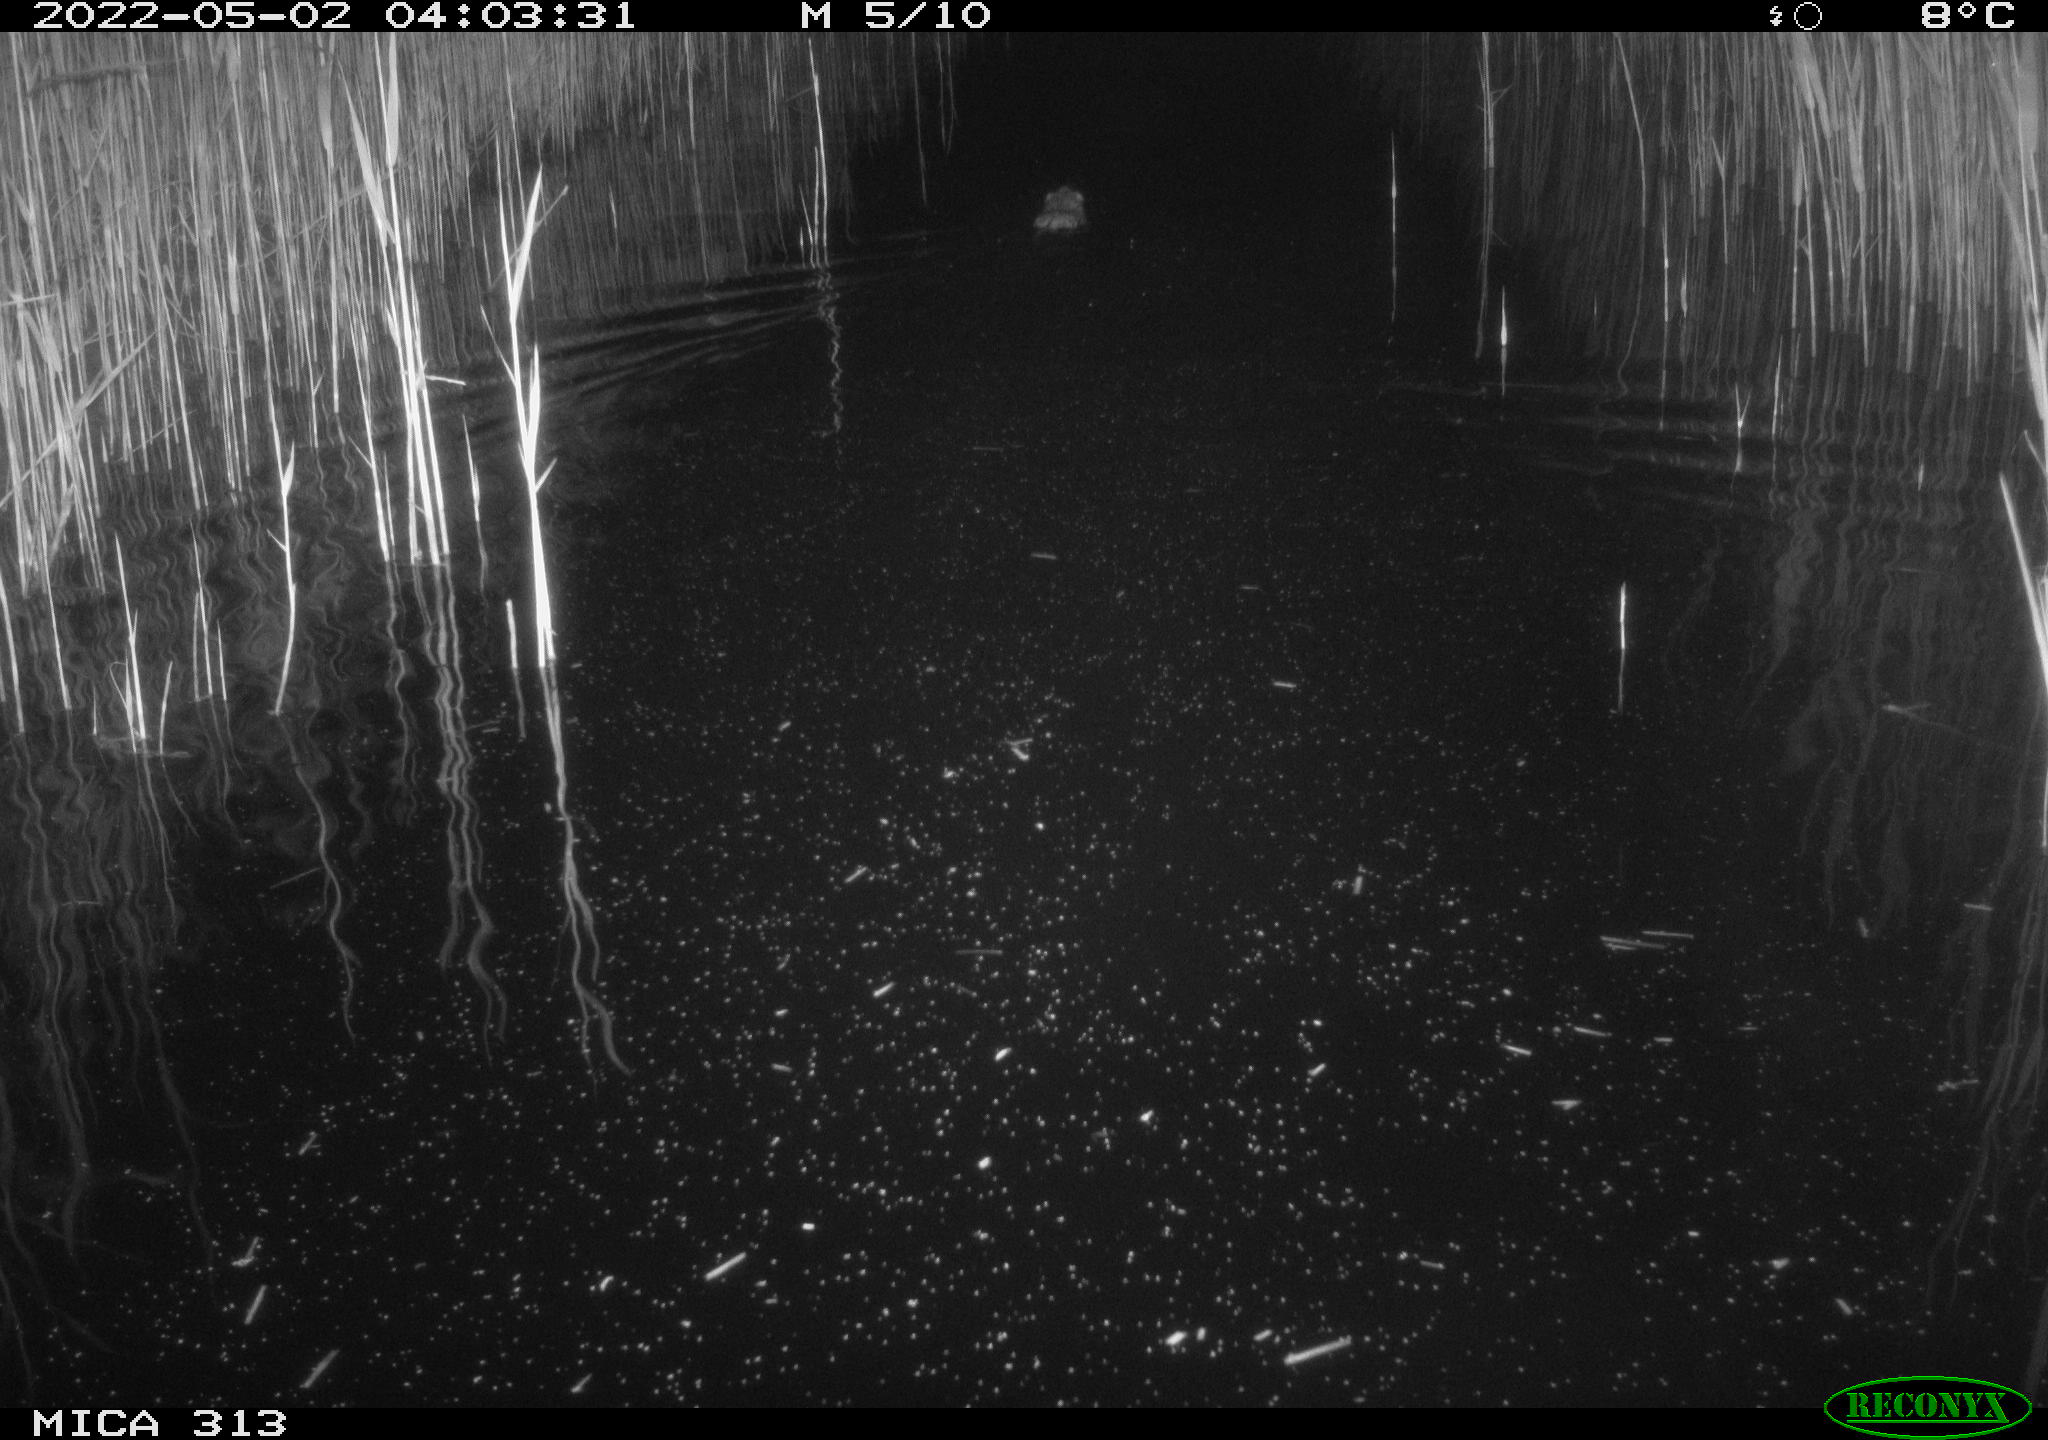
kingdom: Animalia
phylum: Chordata
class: Mammalia
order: Rodentia
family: Cricetidae
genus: Ondatra
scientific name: Ondatra zibethicus
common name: Muskrat
